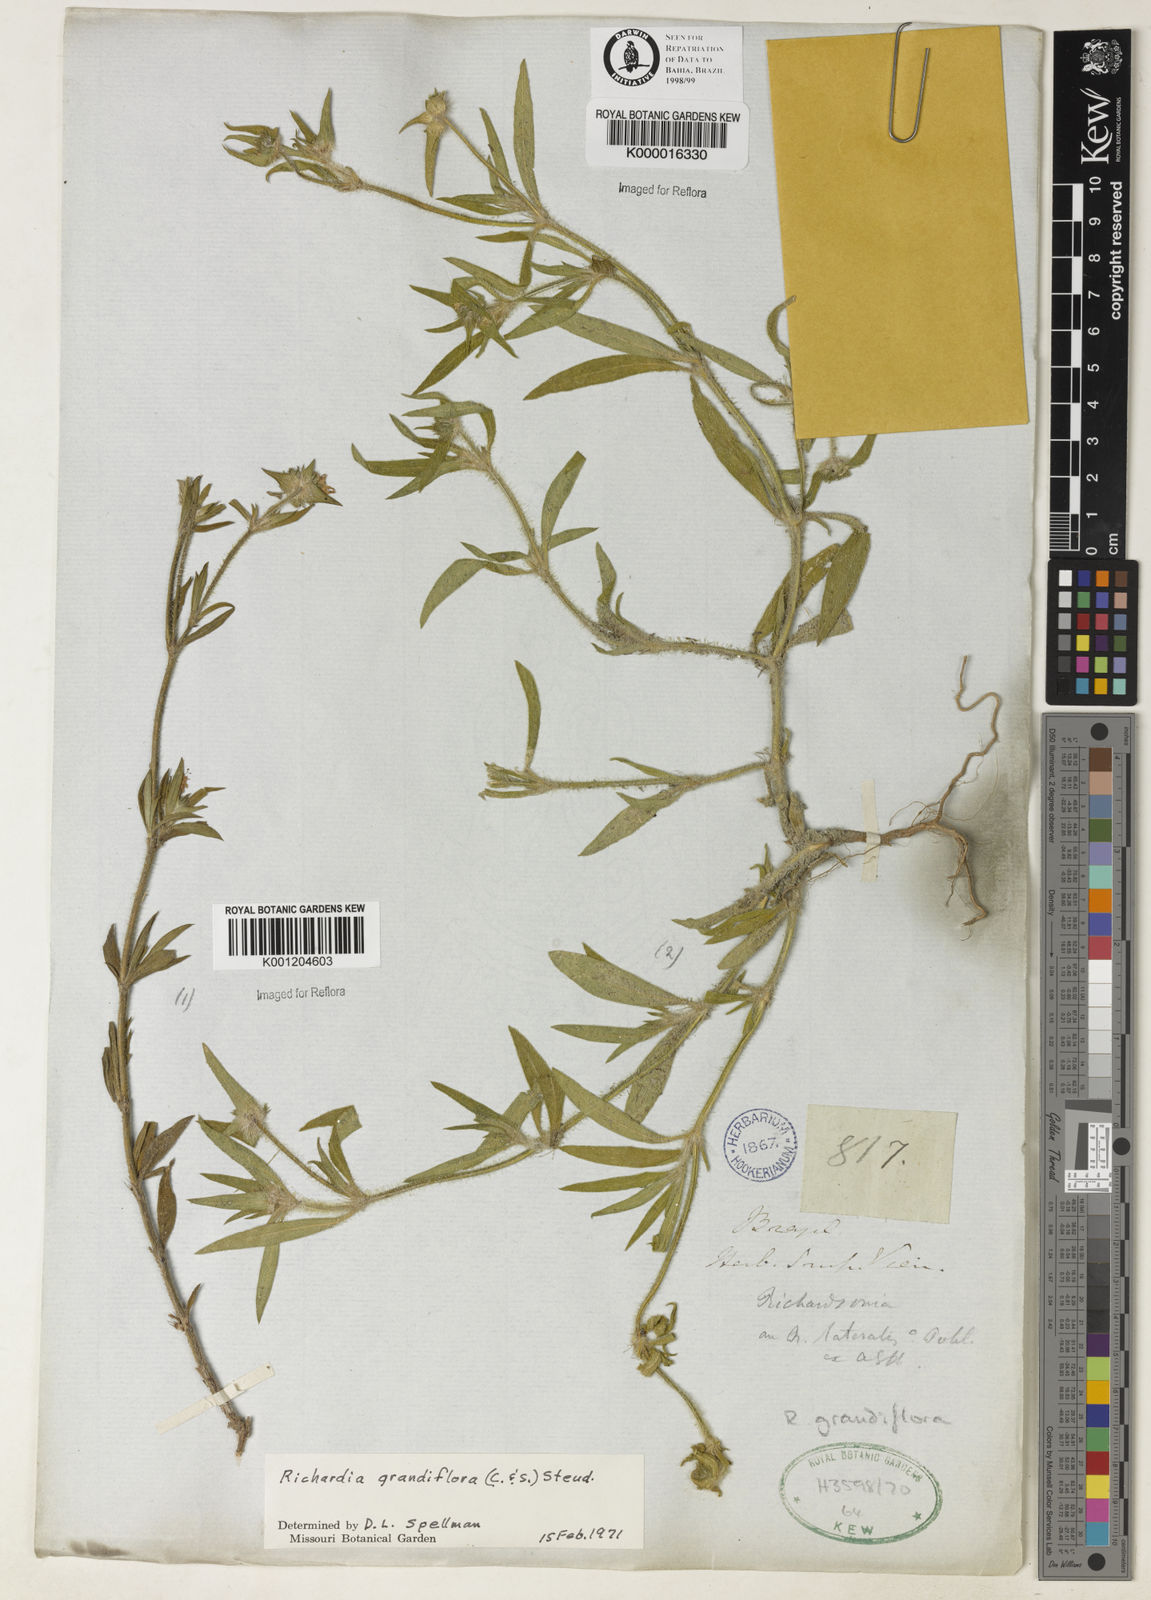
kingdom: Plantae
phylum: Tracheophyta
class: Magnoliopsida
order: Gentianales
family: Rubiaceae
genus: Richardia
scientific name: Richardia grandiflora
